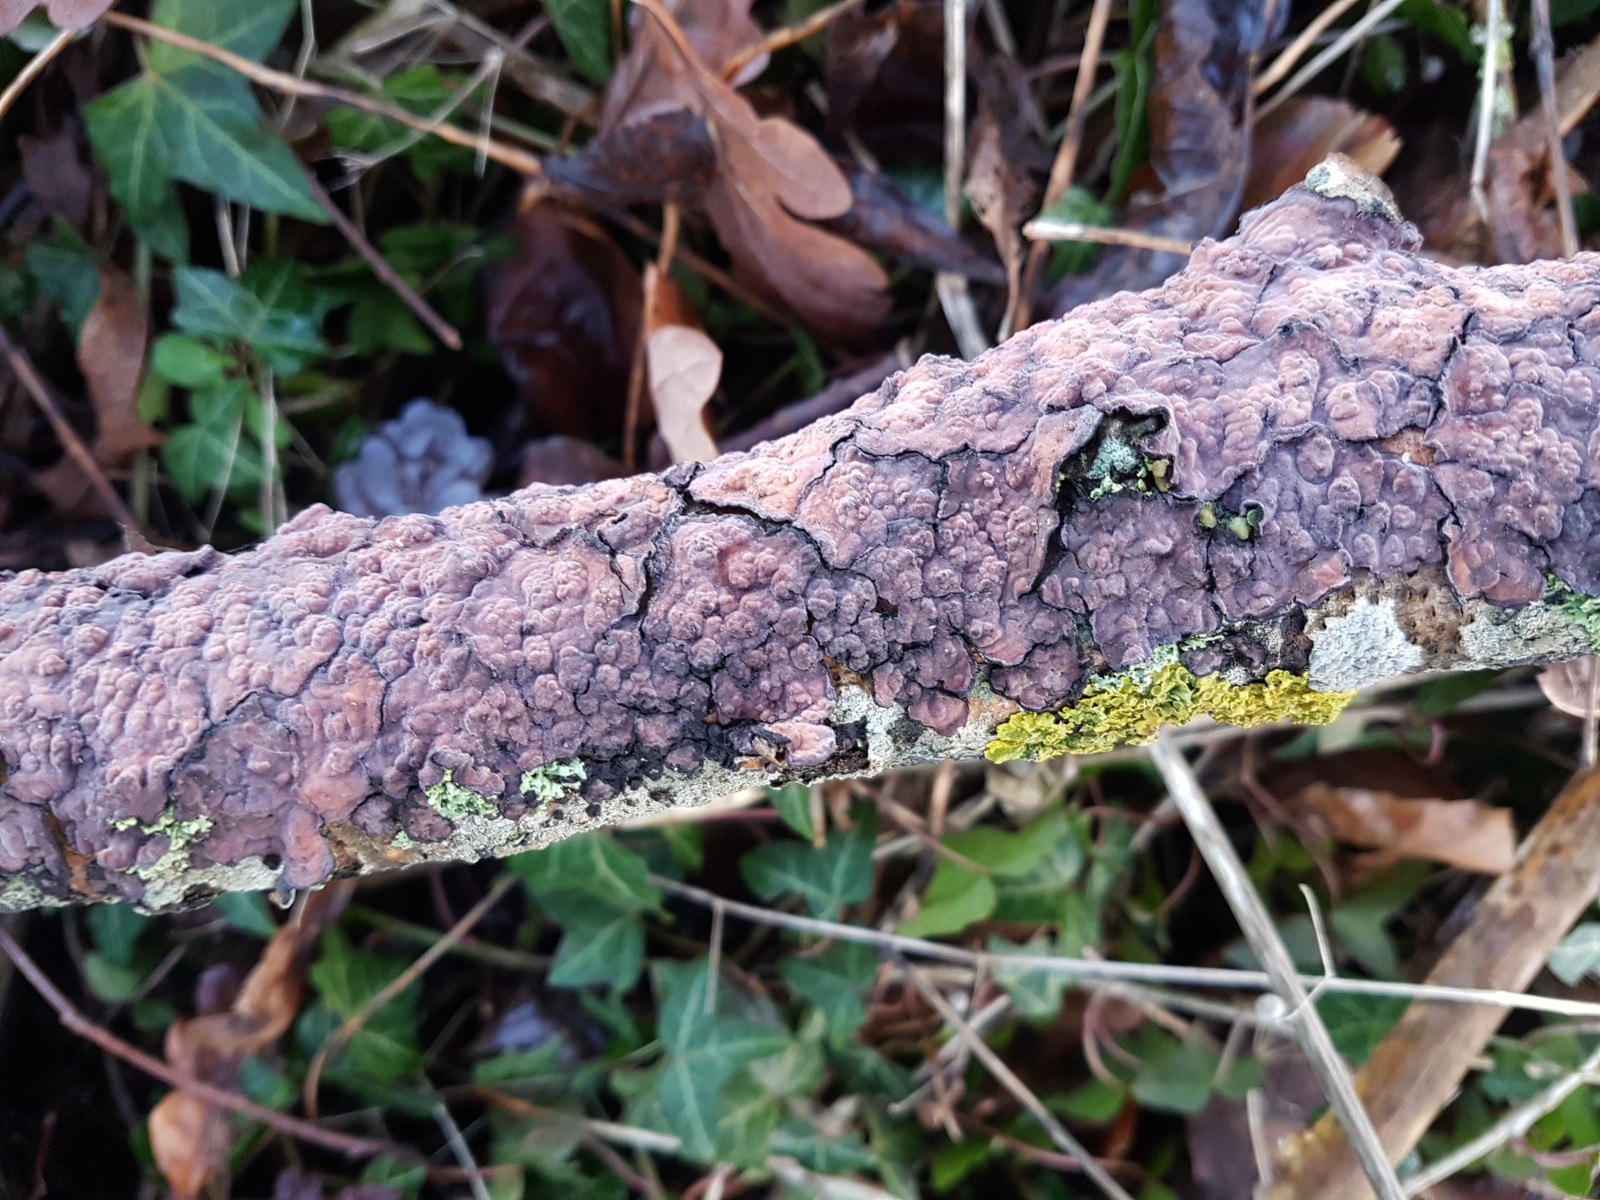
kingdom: Fungi
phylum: Basidiomycota
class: Agaricomycetes
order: Russulales
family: Peniophoraceae
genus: Peniophora
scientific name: Peniophora quercina
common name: ege-voksskind
